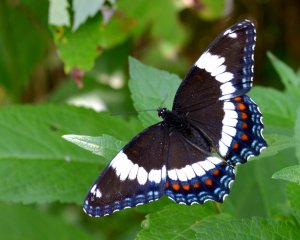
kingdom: Animalia
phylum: Arthropoda
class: Insecta
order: Lepidoptera
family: Nymphalidae
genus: Limenitis
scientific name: Limenitis arthemis
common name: Red-spotted Admiral
